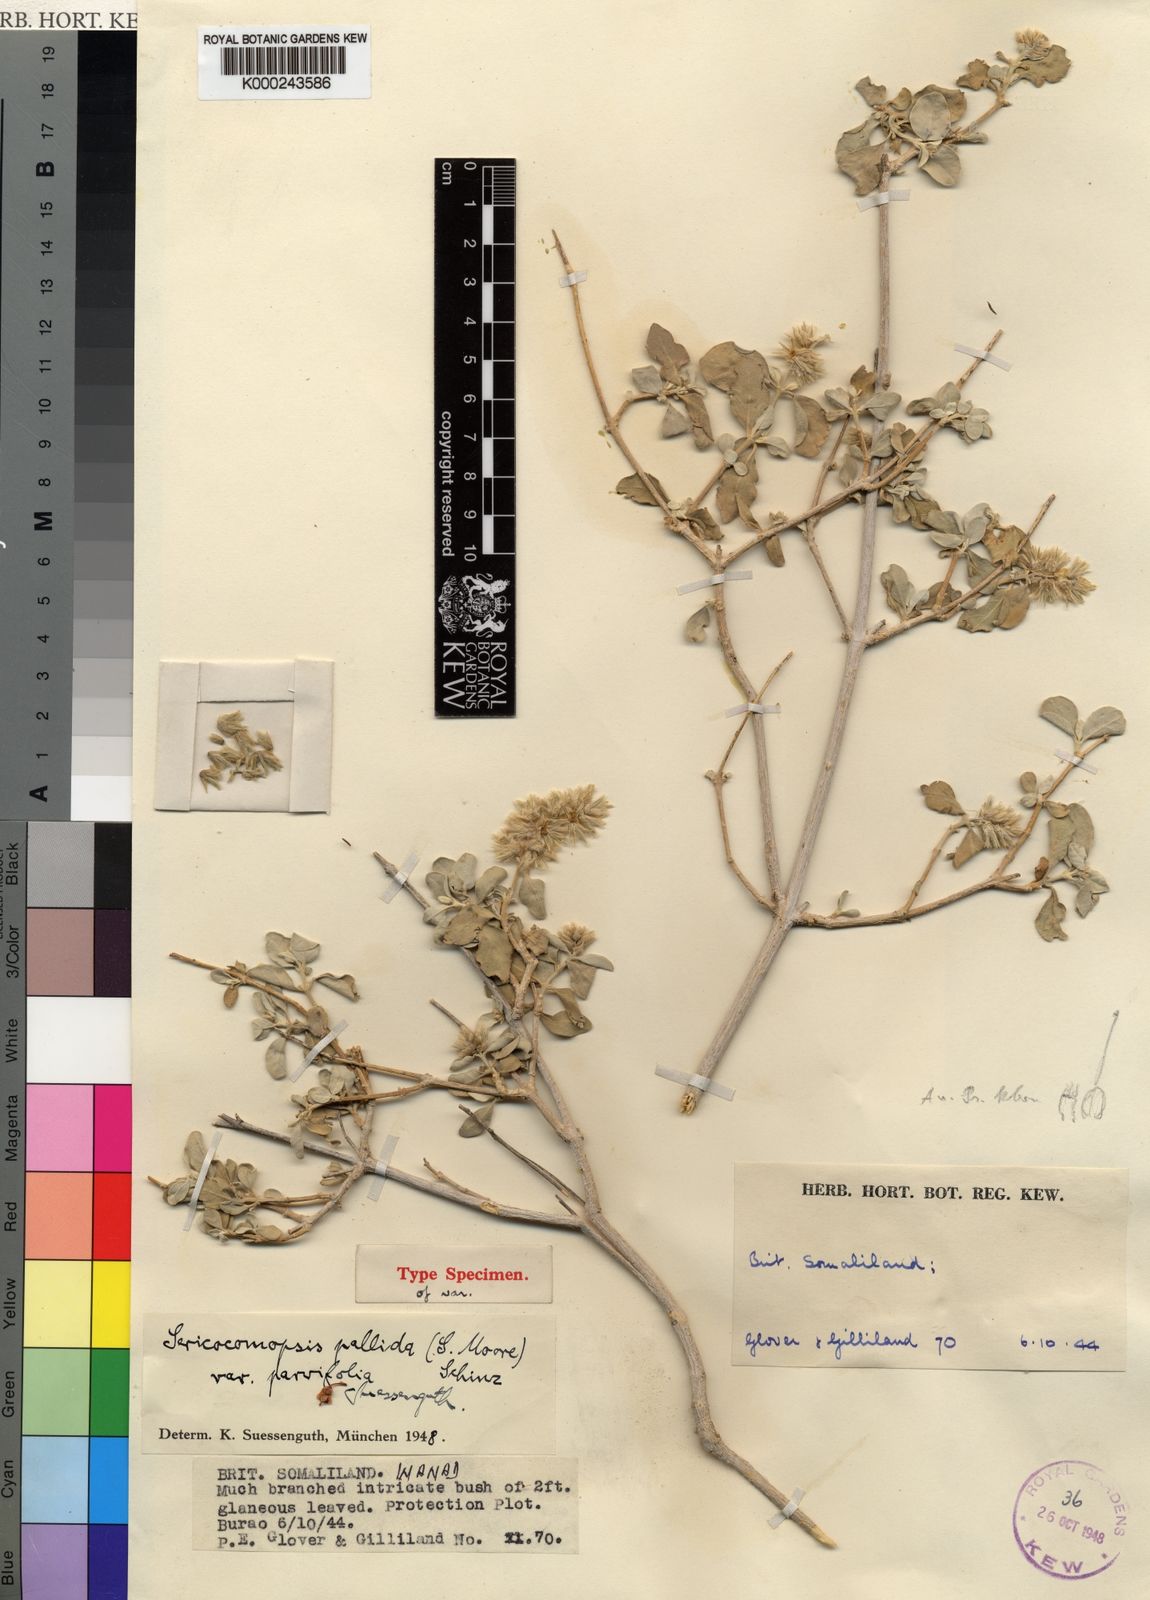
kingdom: Plantae
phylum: Tracheophyta
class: Magnoliopsida
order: Caryophyllales
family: Amaranthaceae
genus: Sericocomopsis
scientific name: Sericocomopsis pallida
